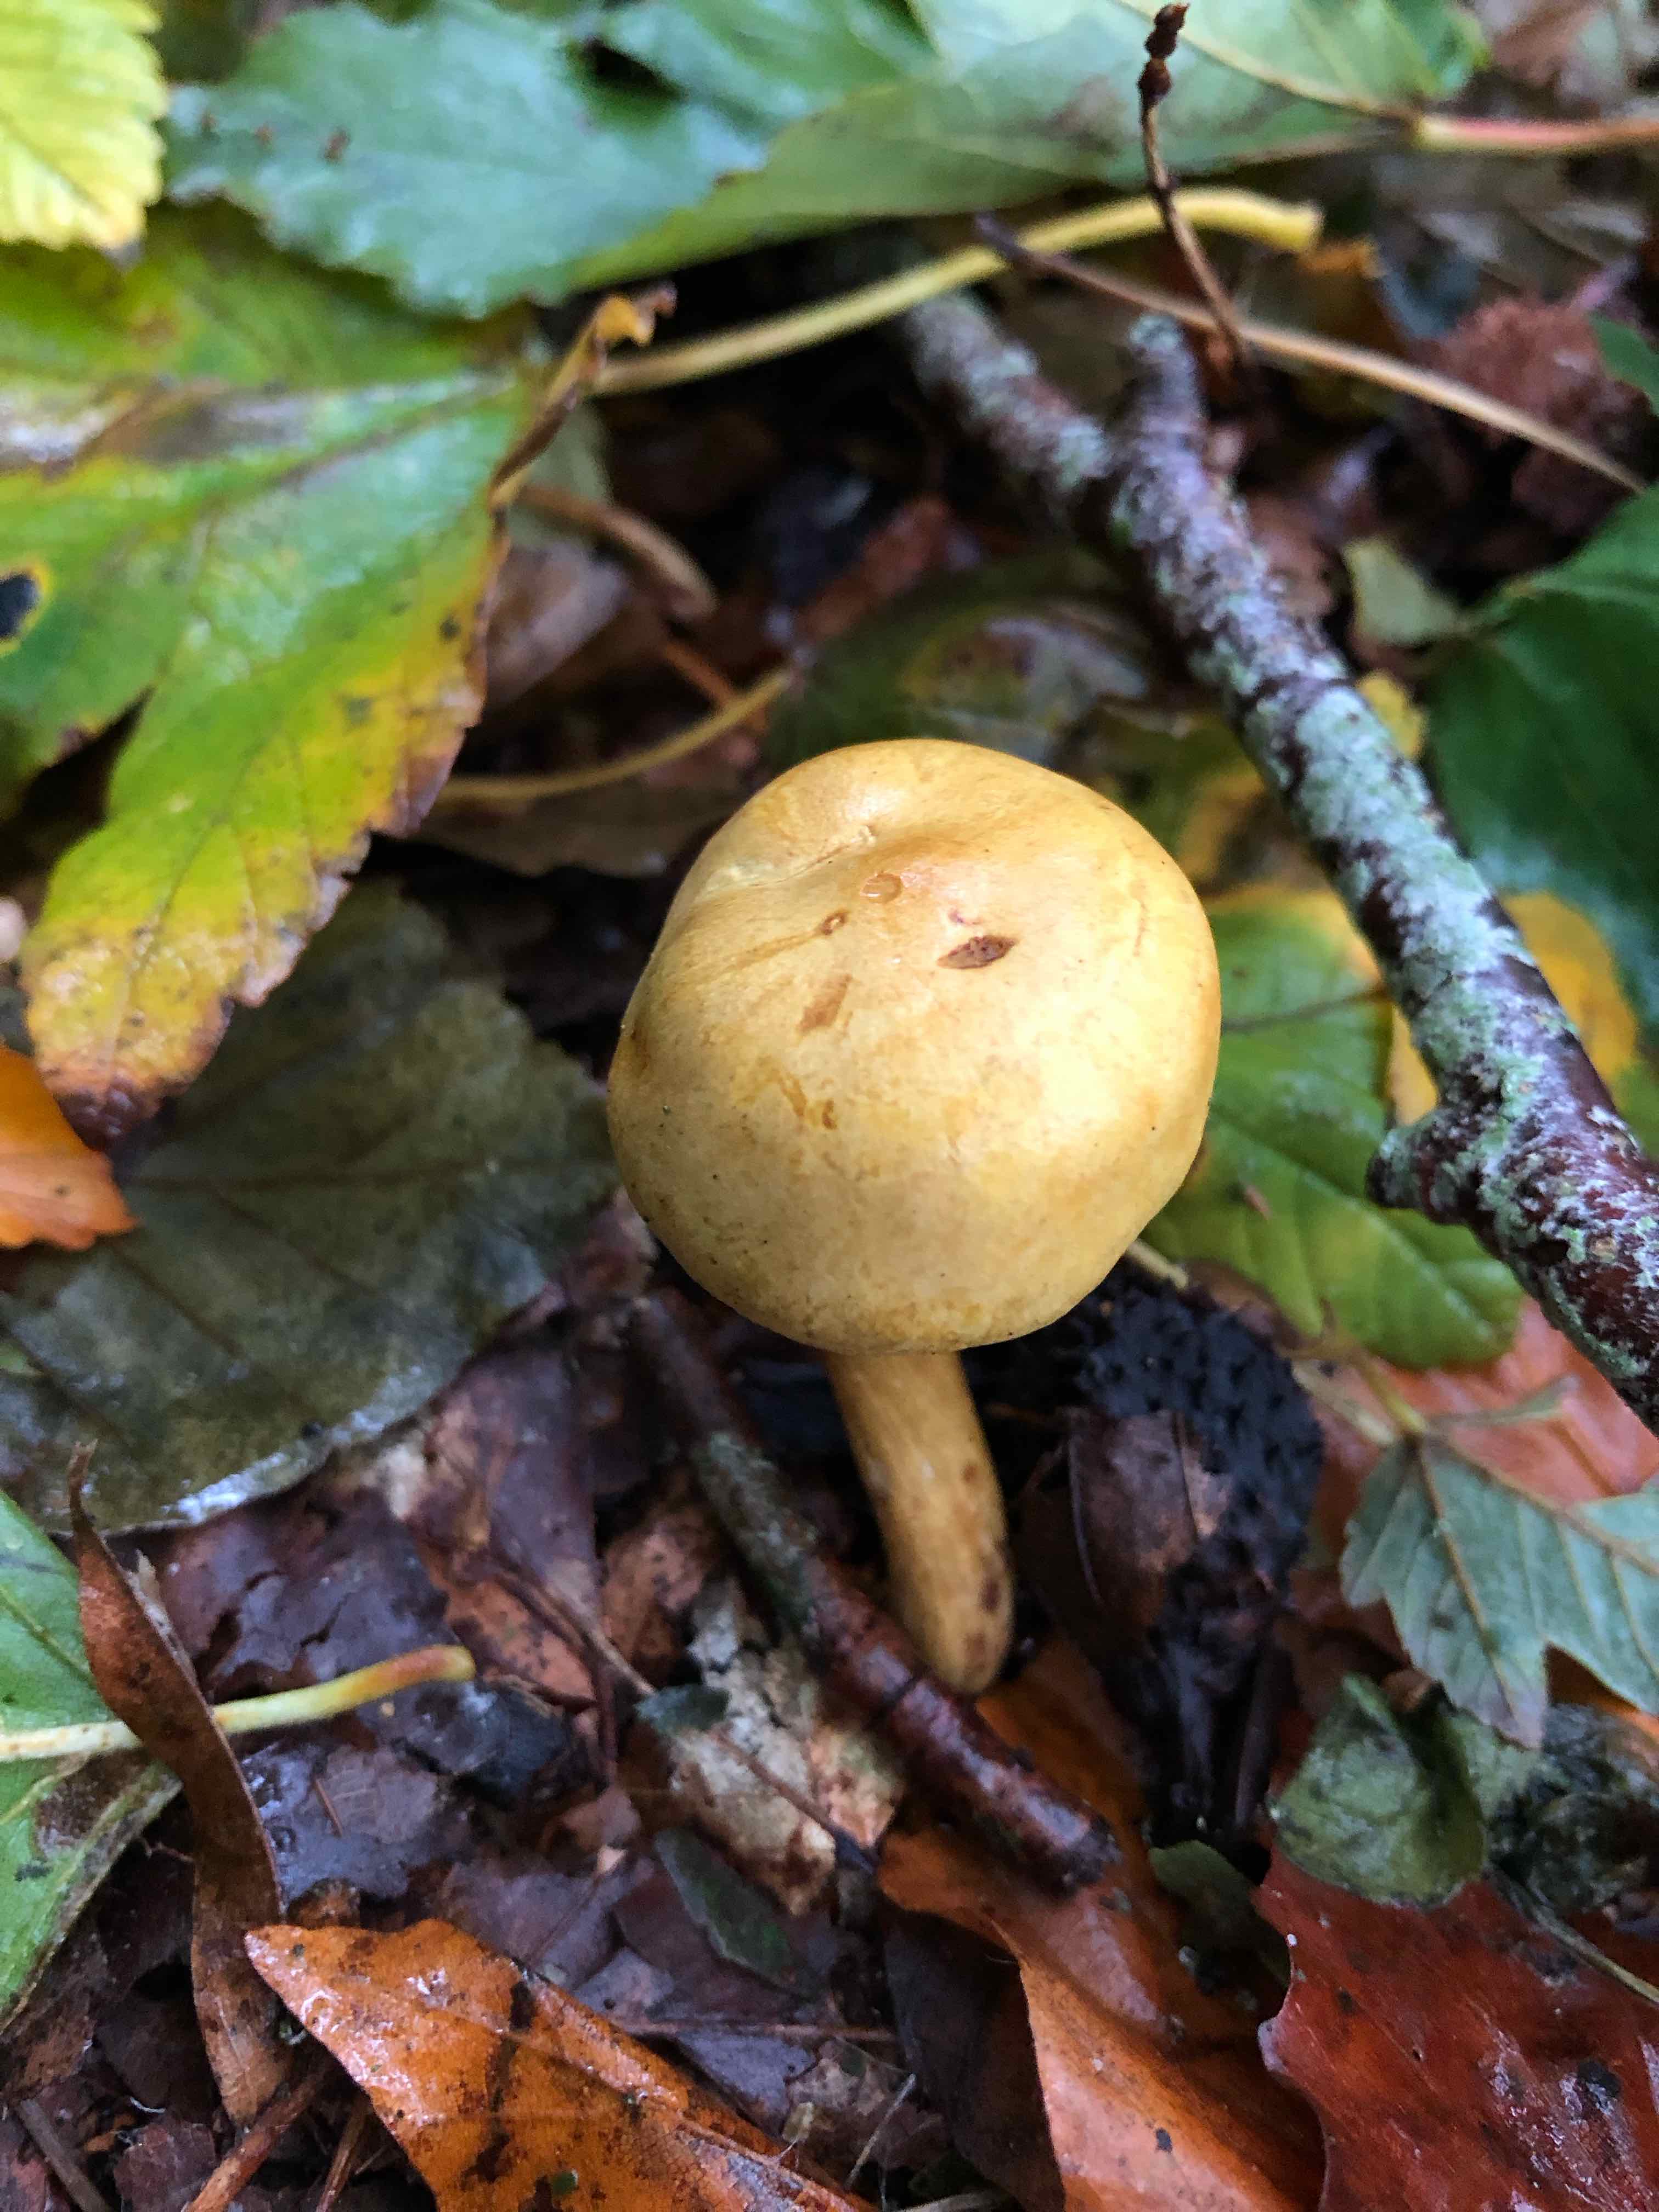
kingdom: Fungi
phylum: Basidiomycota
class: Agaricomycetes
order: Agaricales
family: Tricholomataceae
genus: Tricholoma
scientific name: Tricholoma sulphureum
